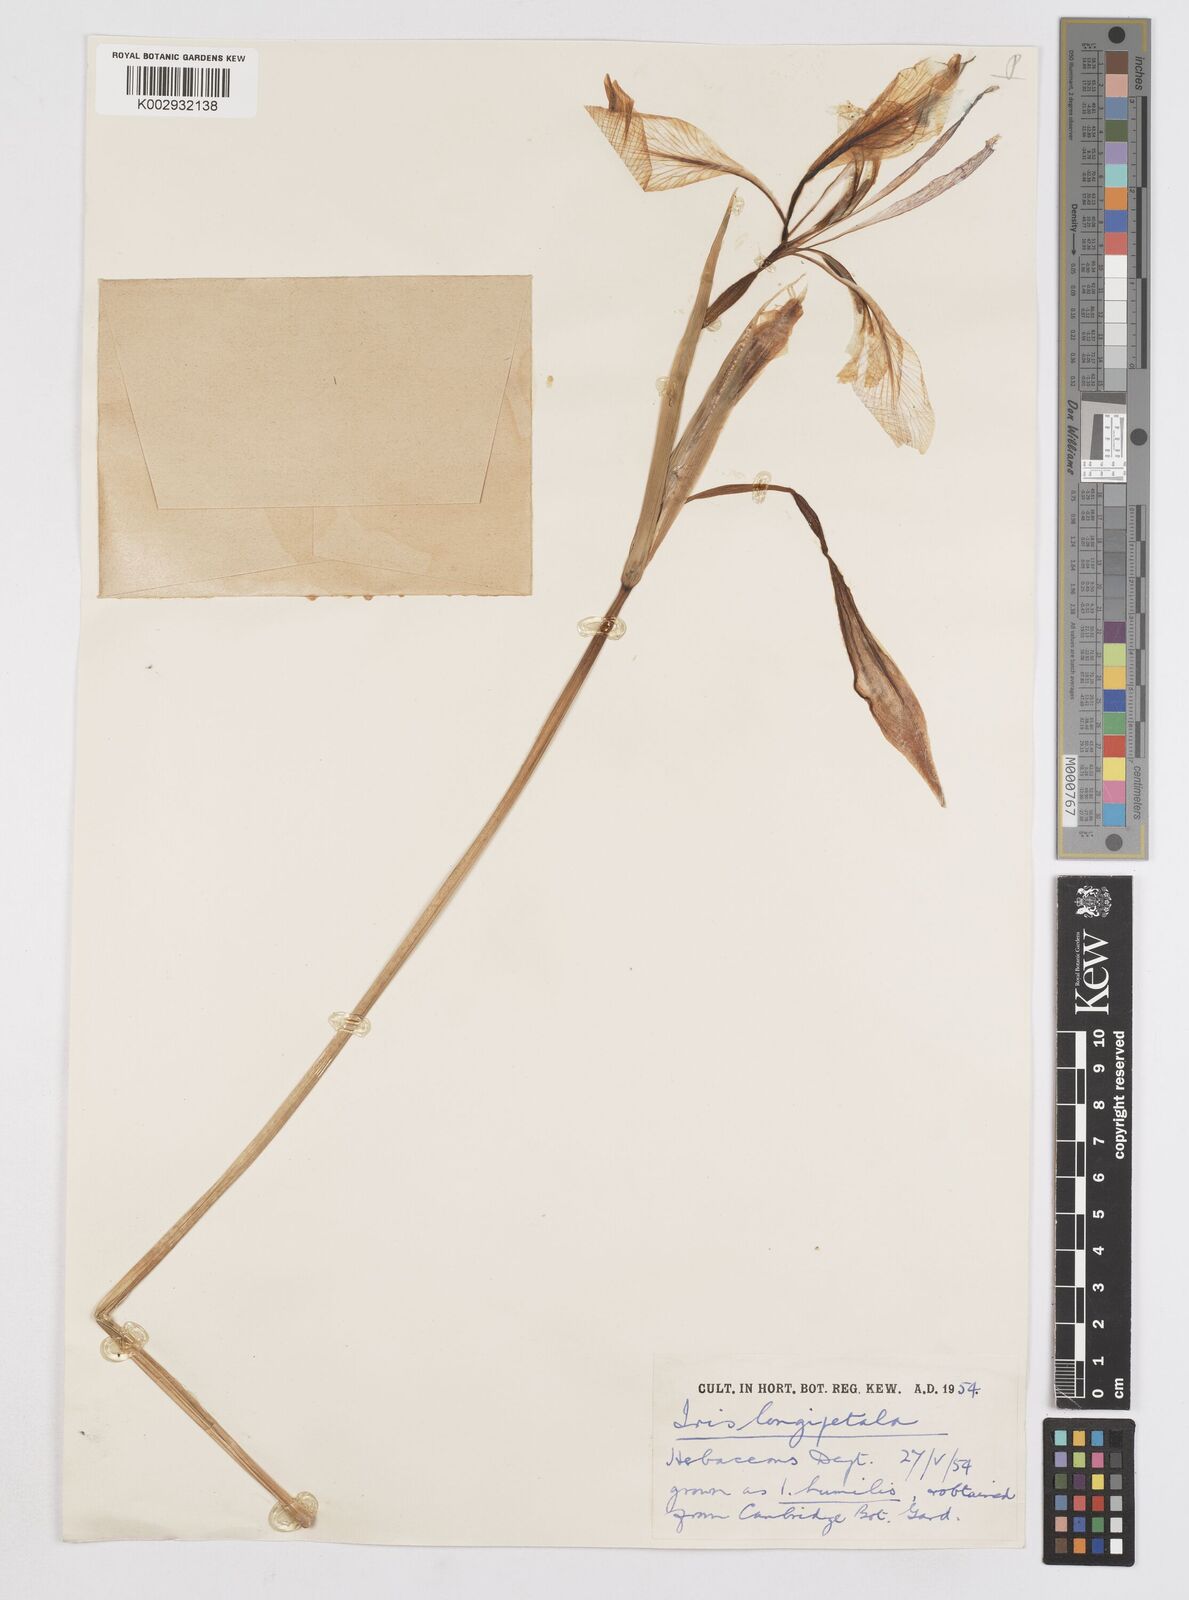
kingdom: Plantae
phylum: Tracheophyta
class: Liliopsida
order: Asparagales
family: Iridaceae
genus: Iris
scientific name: Iris longipetala
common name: Long-petal iris
